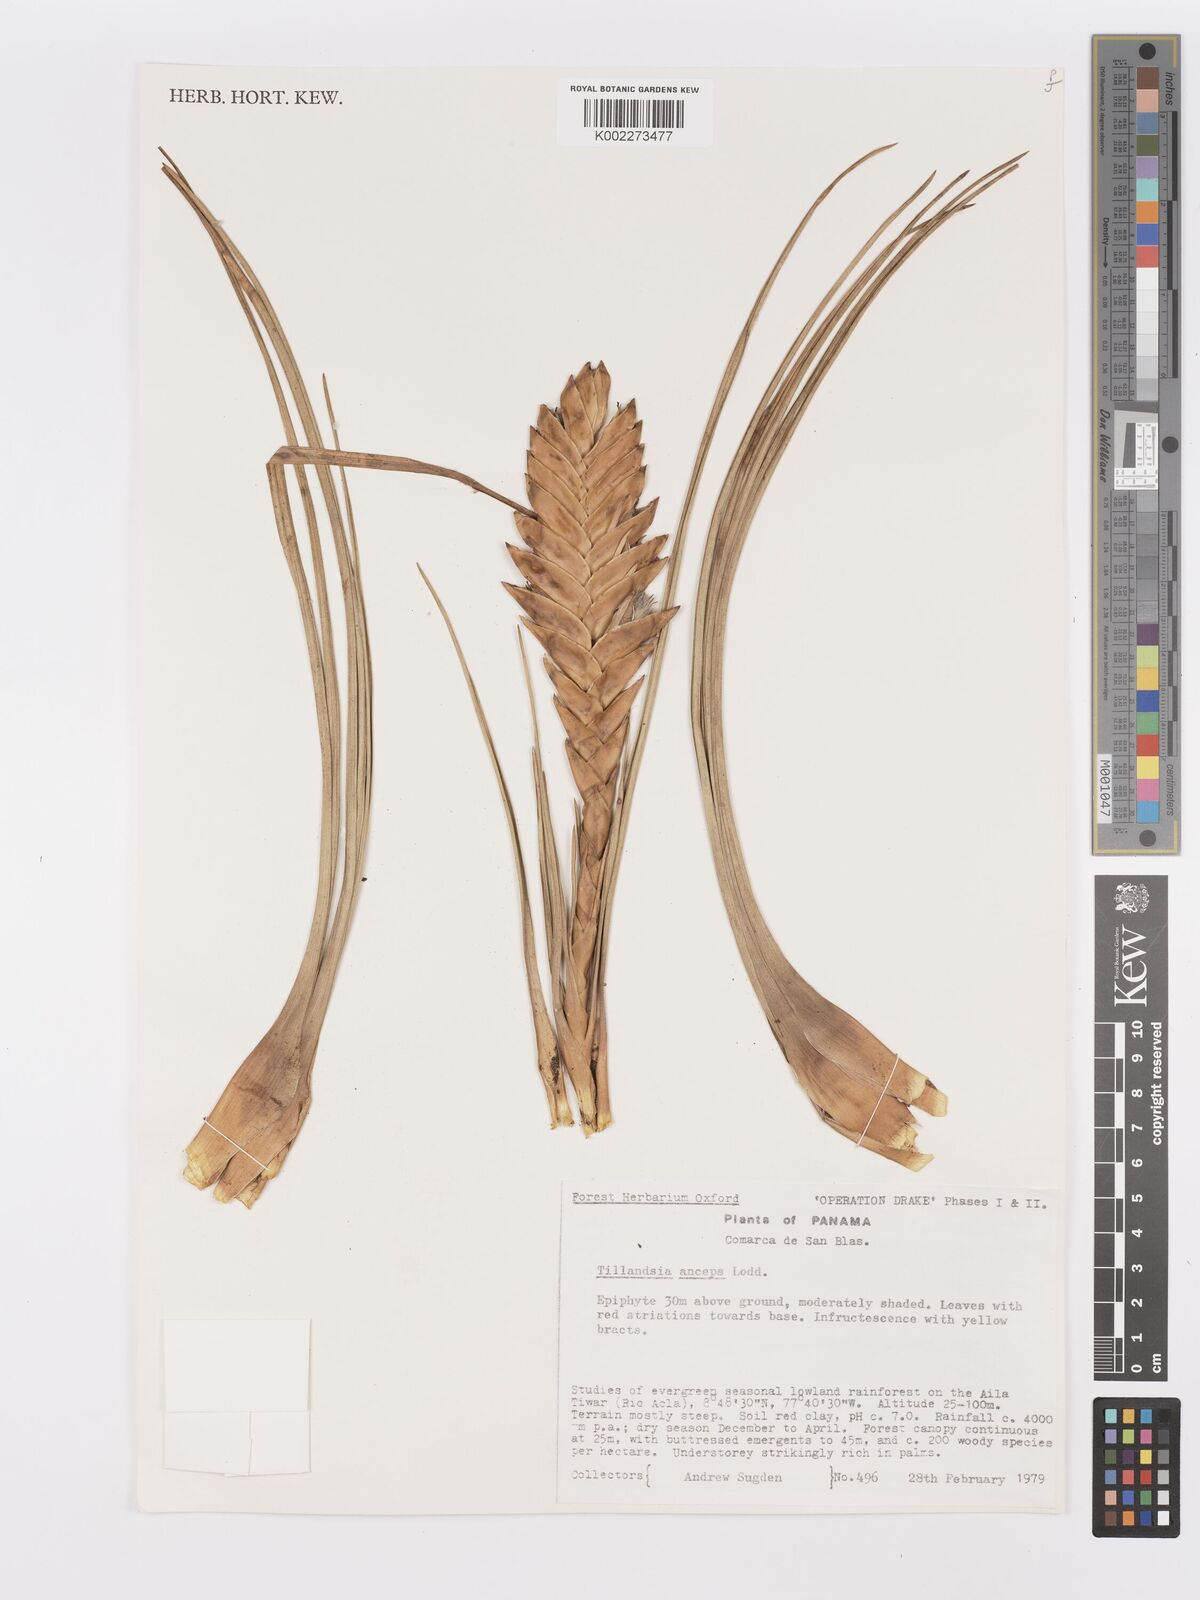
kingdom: Plantae
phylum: Tracheophyta
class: Liliopsida
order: Poales
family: Bromeliaceae
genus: Wallisia
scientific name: Wallisia anceps
